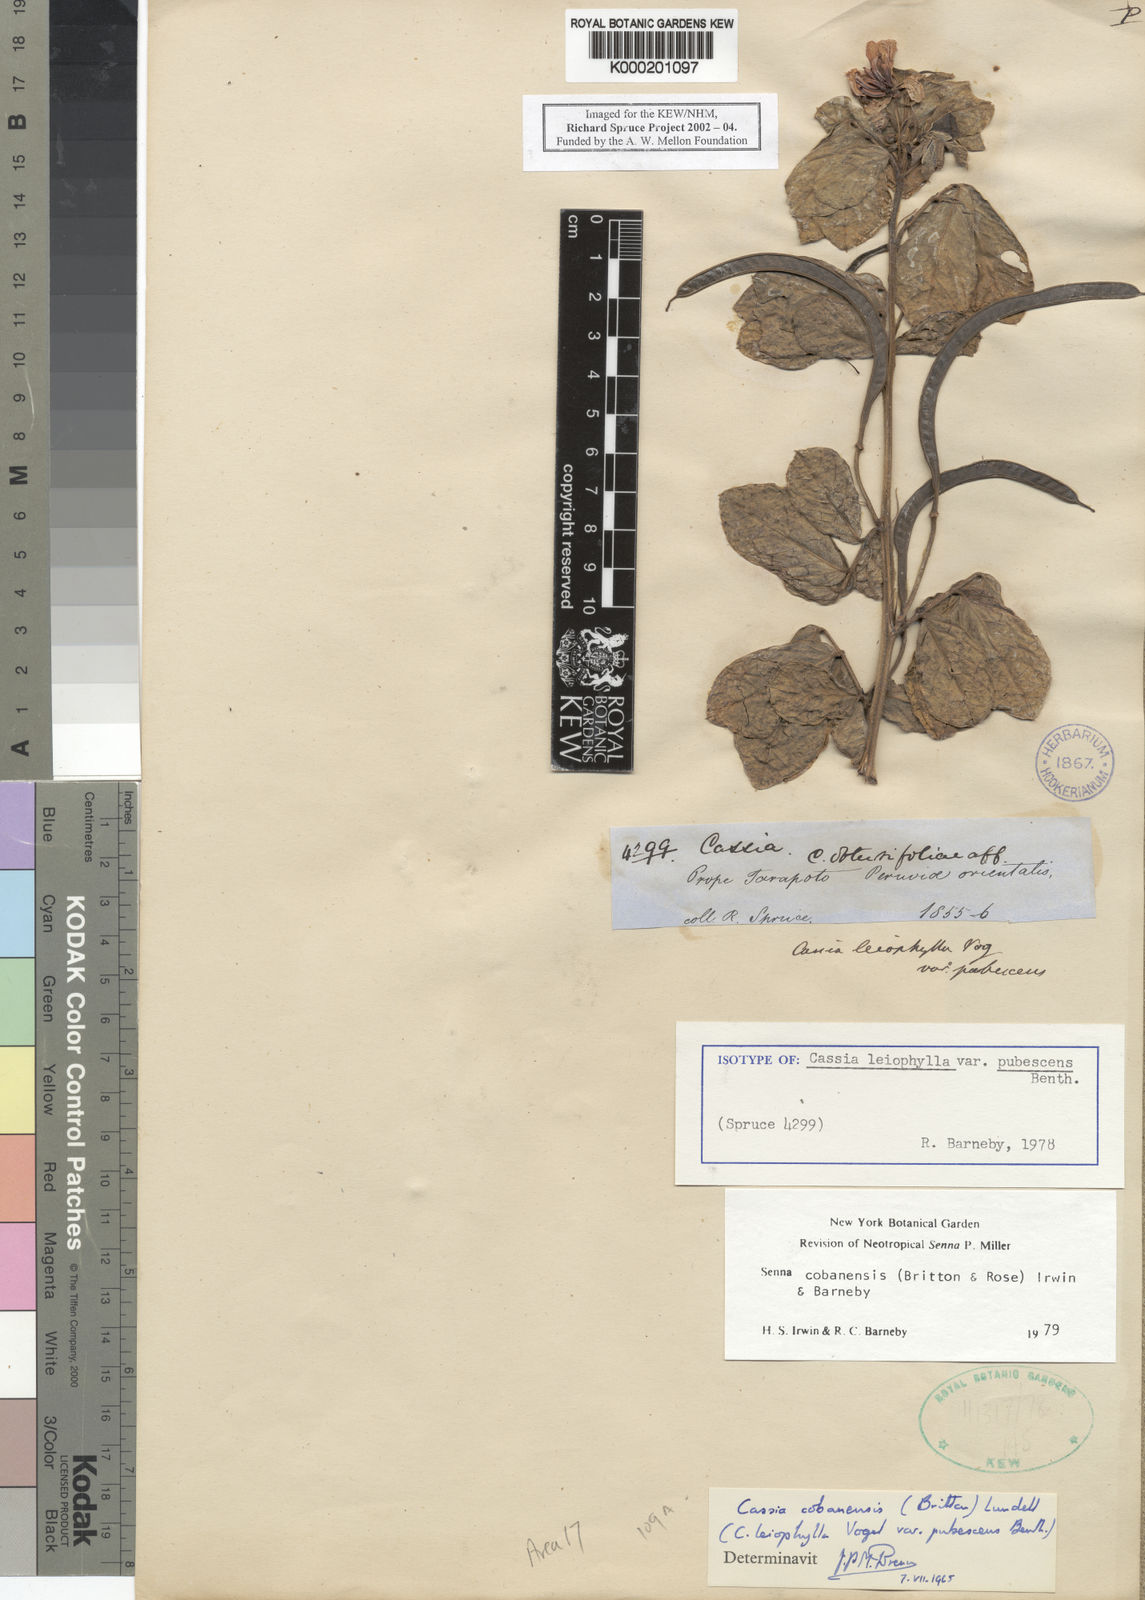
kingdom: Plantae
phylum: Tracheophyta
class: Magnoliopsida
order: Fabales
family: Fabaceae
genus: Senna
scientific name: Senna cobanensis
